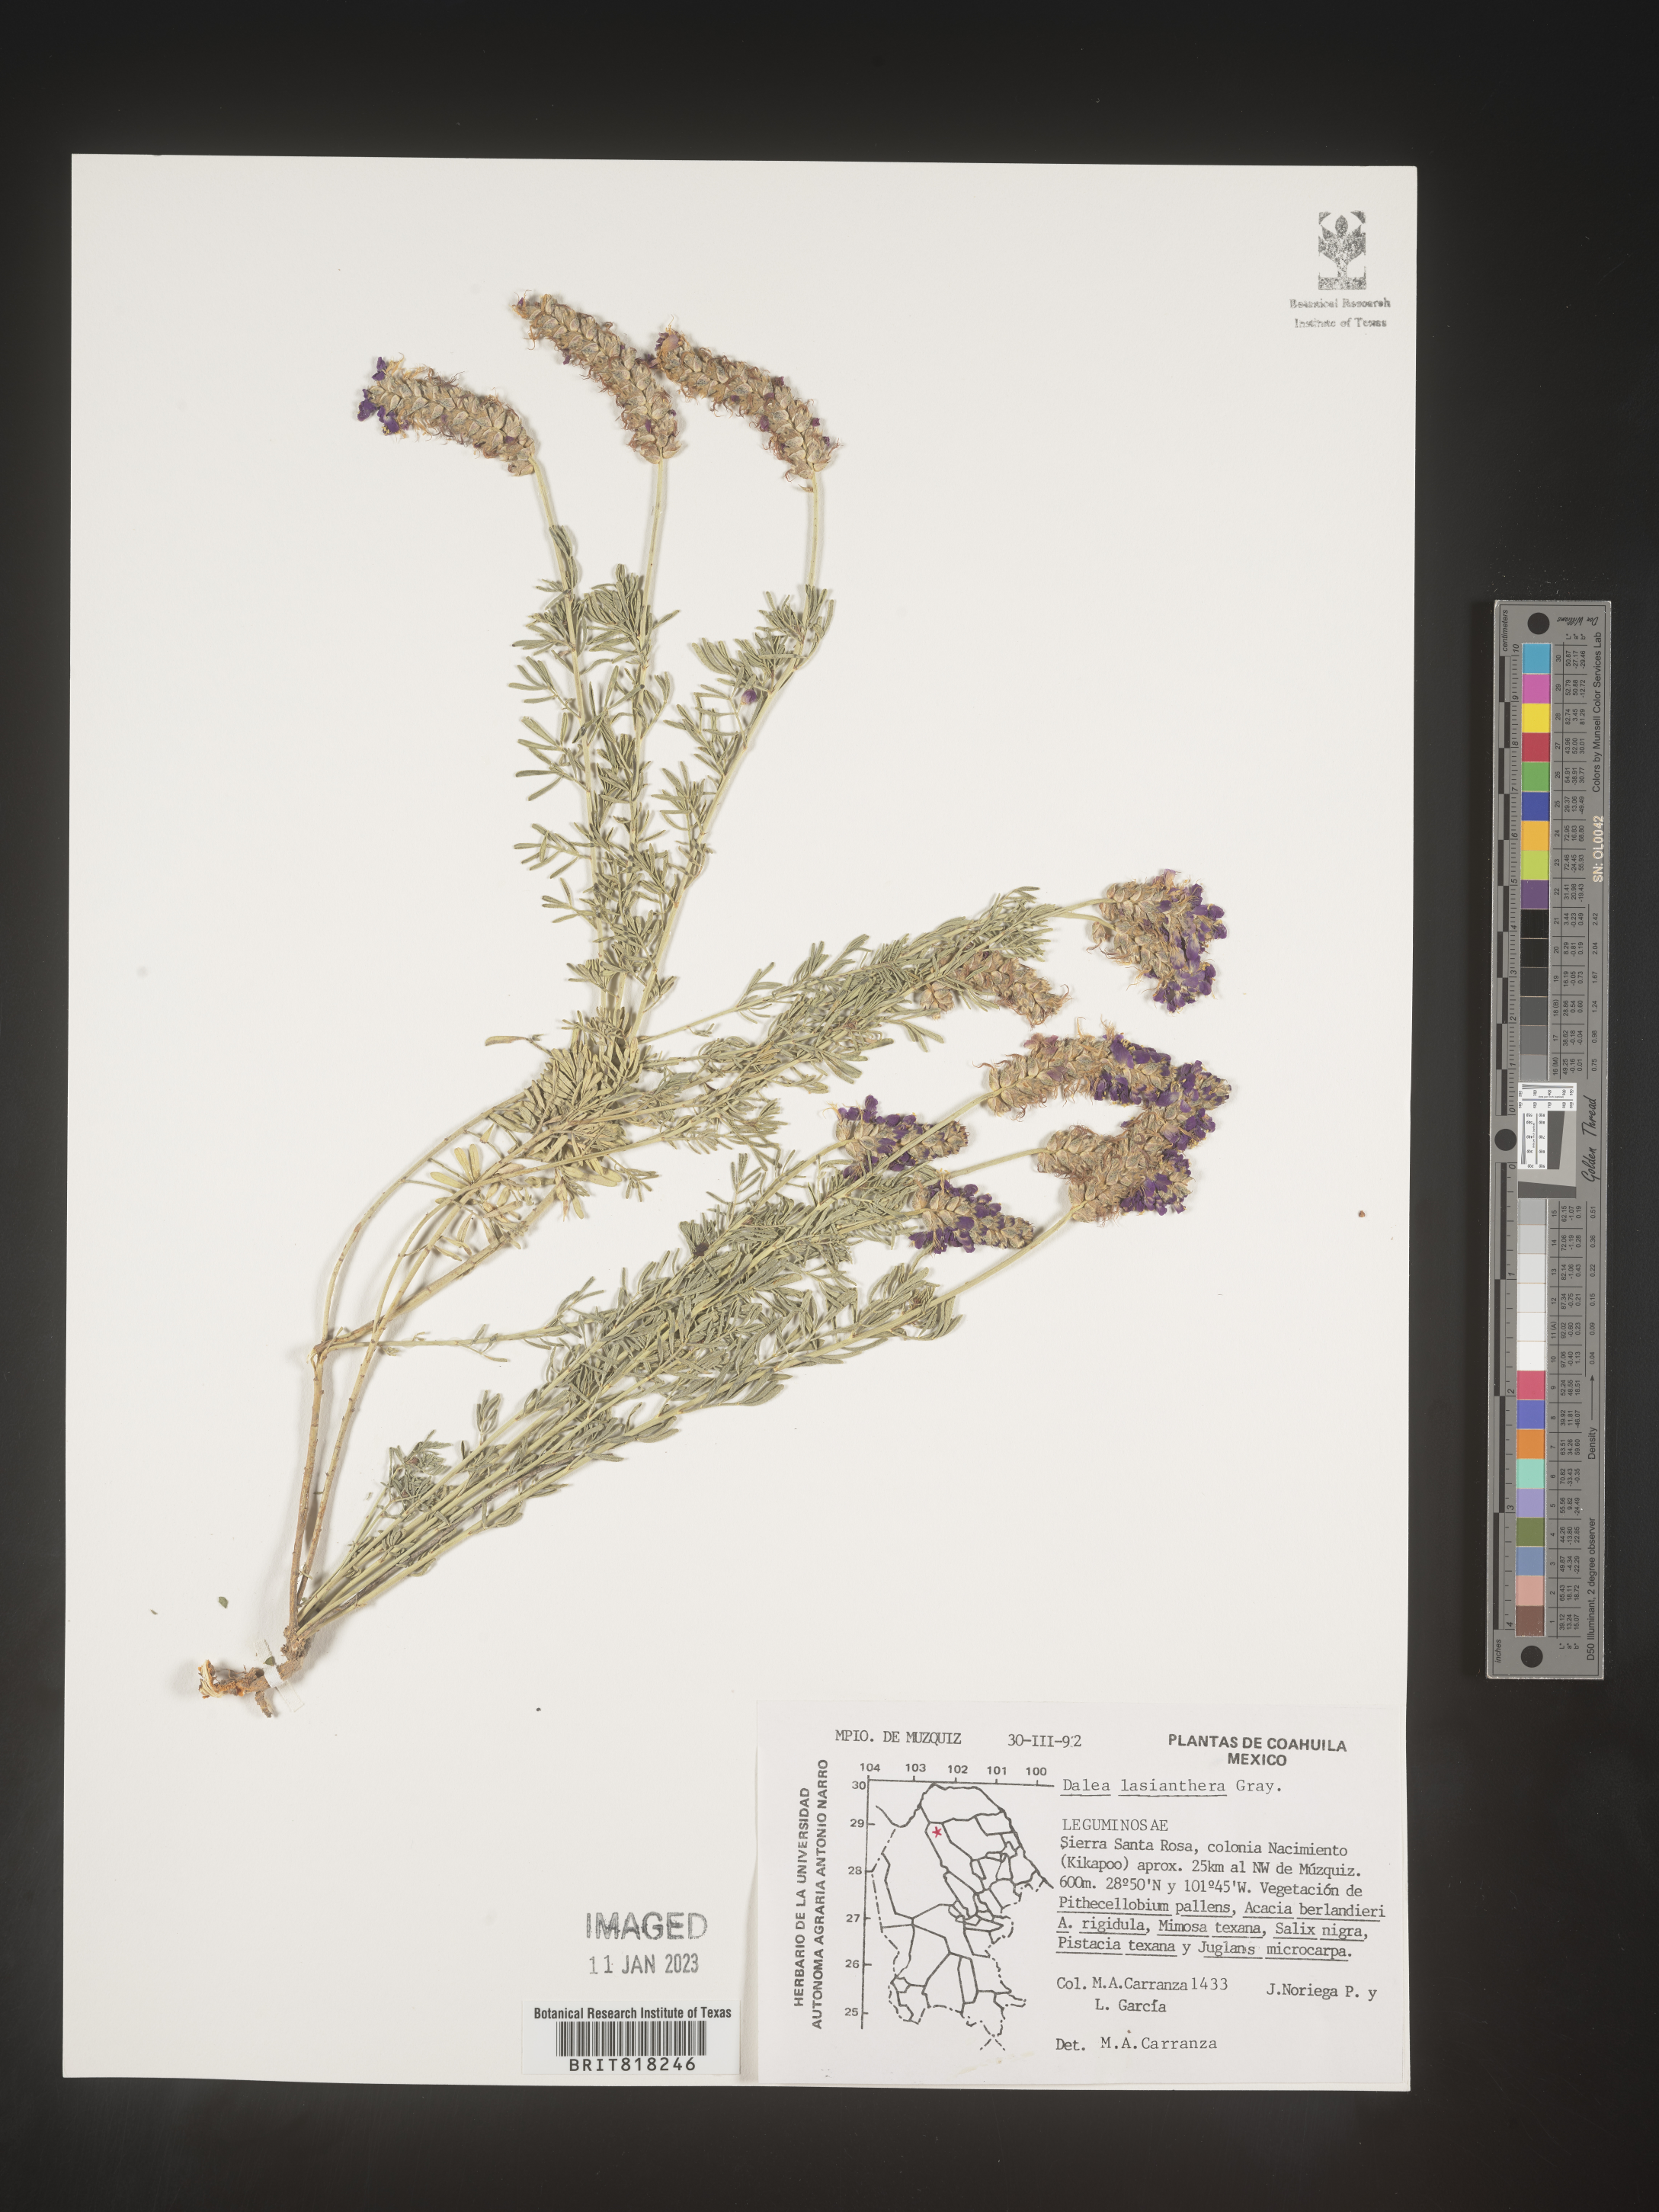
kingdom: Plantae
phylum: Tracheophyta
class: Magnoliopsida
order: Fabales
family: Fabaceae
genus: Dalea
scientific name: Dalea
